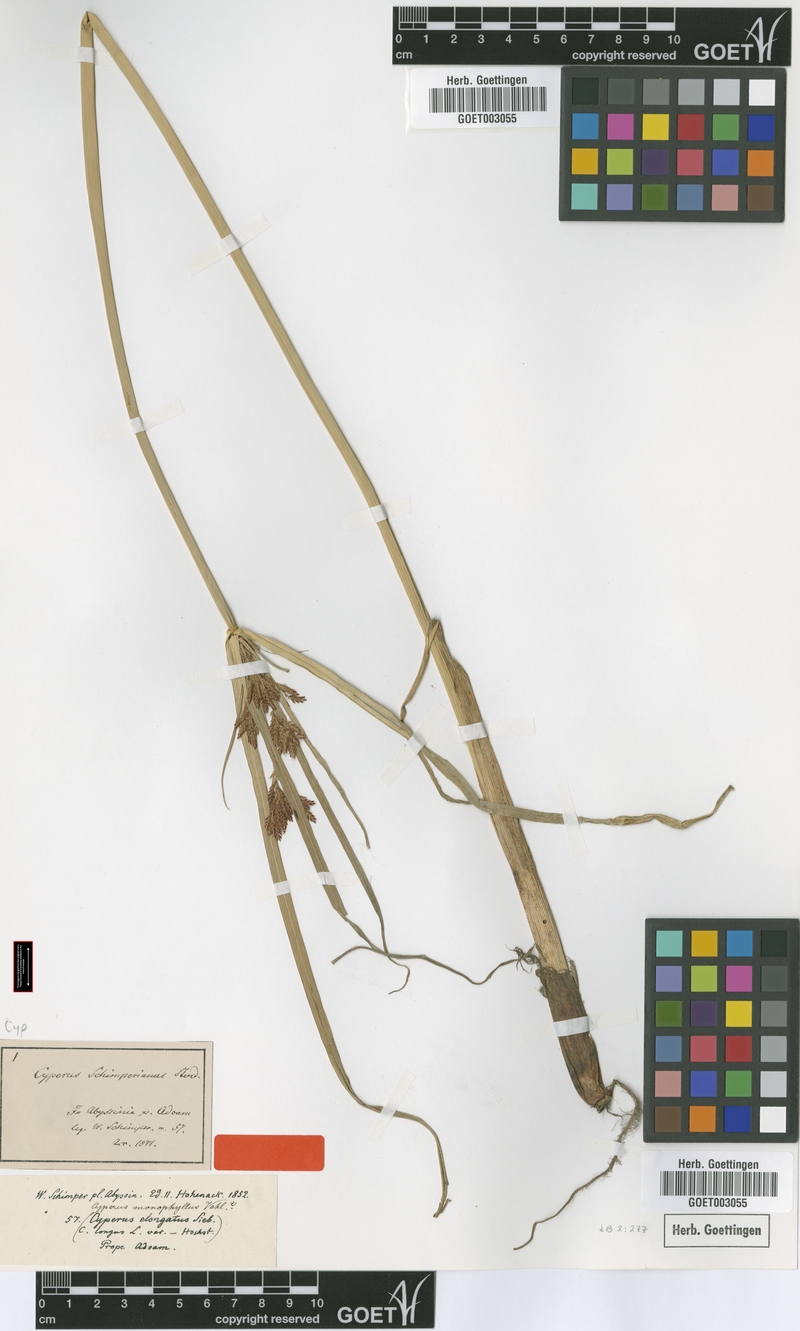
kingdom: Plantae
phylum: Tracheophyta
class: Liliopsida
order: Poales
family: Cyperaceae
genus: Cyperus
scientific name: Cyperus schimperianus
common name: Schimper flatsedge
